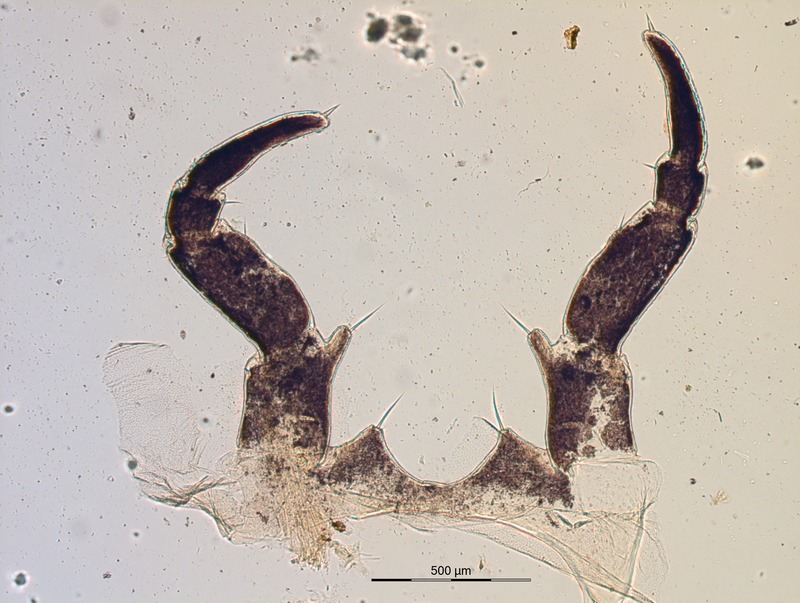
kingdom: Animalia
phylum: Arthropoda
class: Diplopoda
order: Glomerida
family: Glomeridae
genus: Glomeris
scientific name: Glomeris undulata
